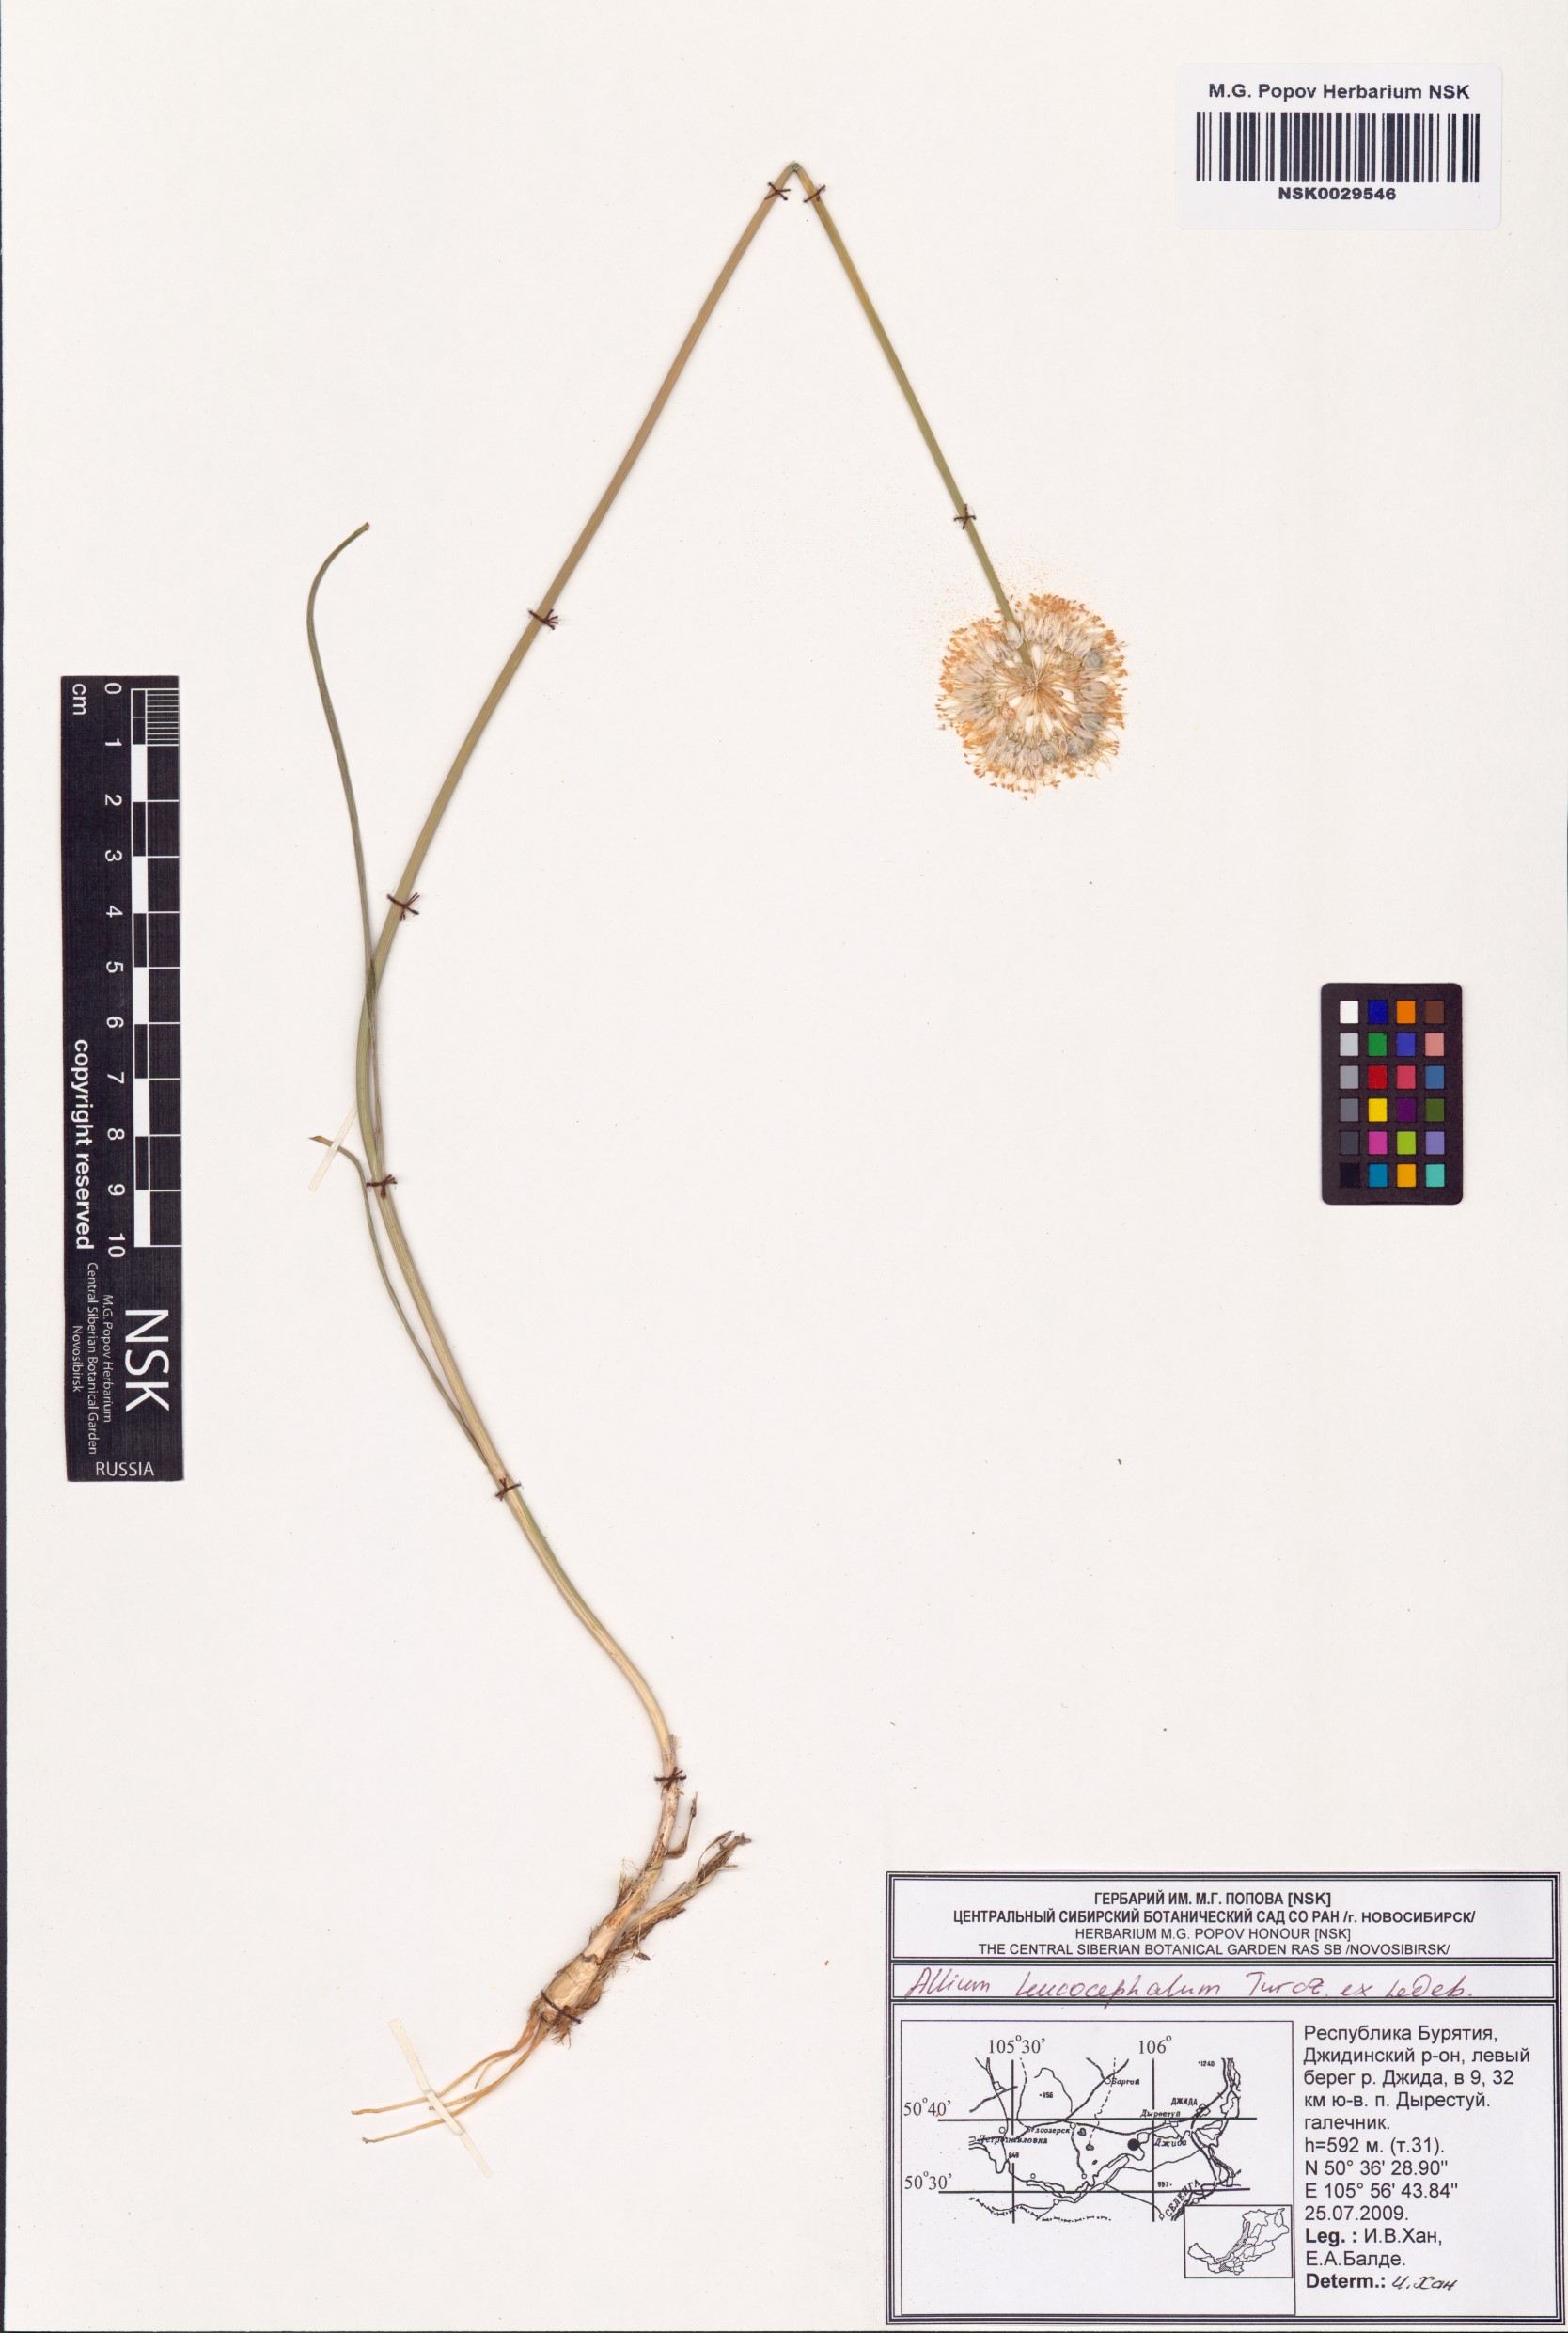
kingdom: Plantae
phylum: Tracheophyta
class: Liliopsida
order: Asparagales
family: Amaryllidaceae
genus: Allium
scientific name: Allium leucocephalum
